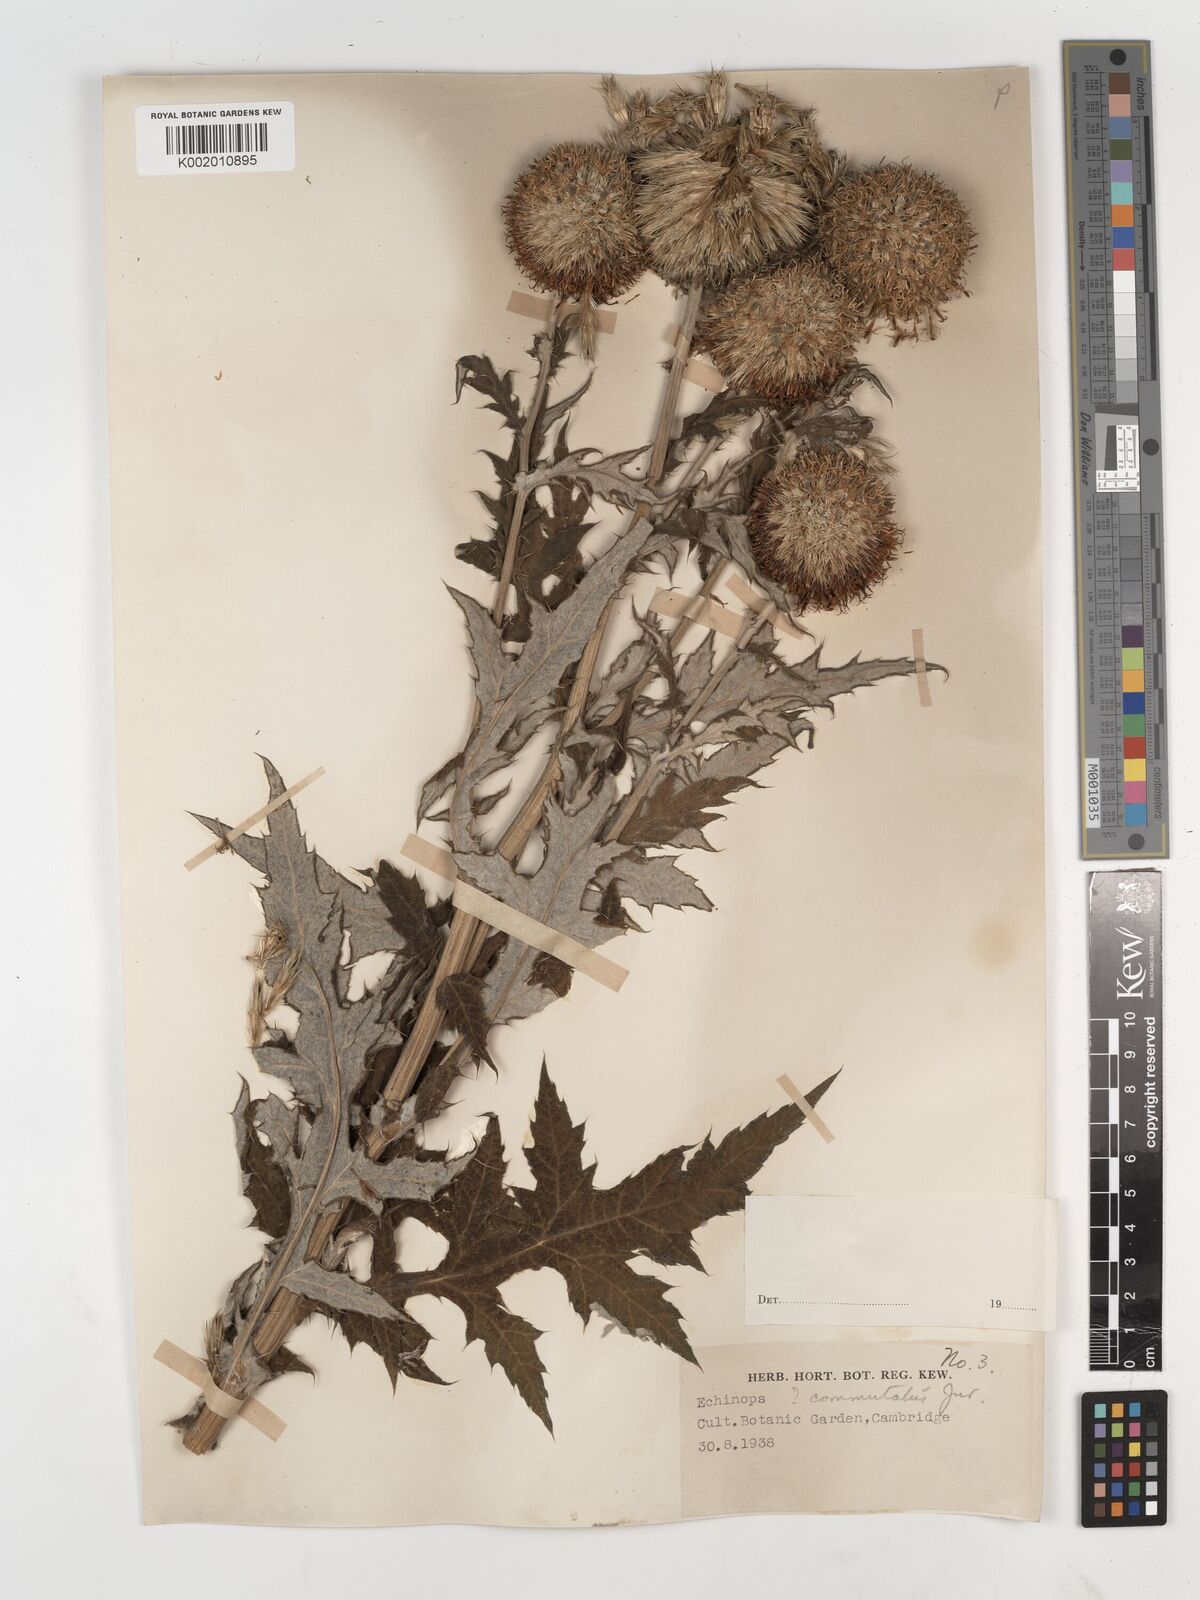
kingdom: Plantae
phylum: Tracheophyta
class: Magnoliopsida
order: Asterales
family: Asteraceae
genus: Echinops
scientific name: Echinops
